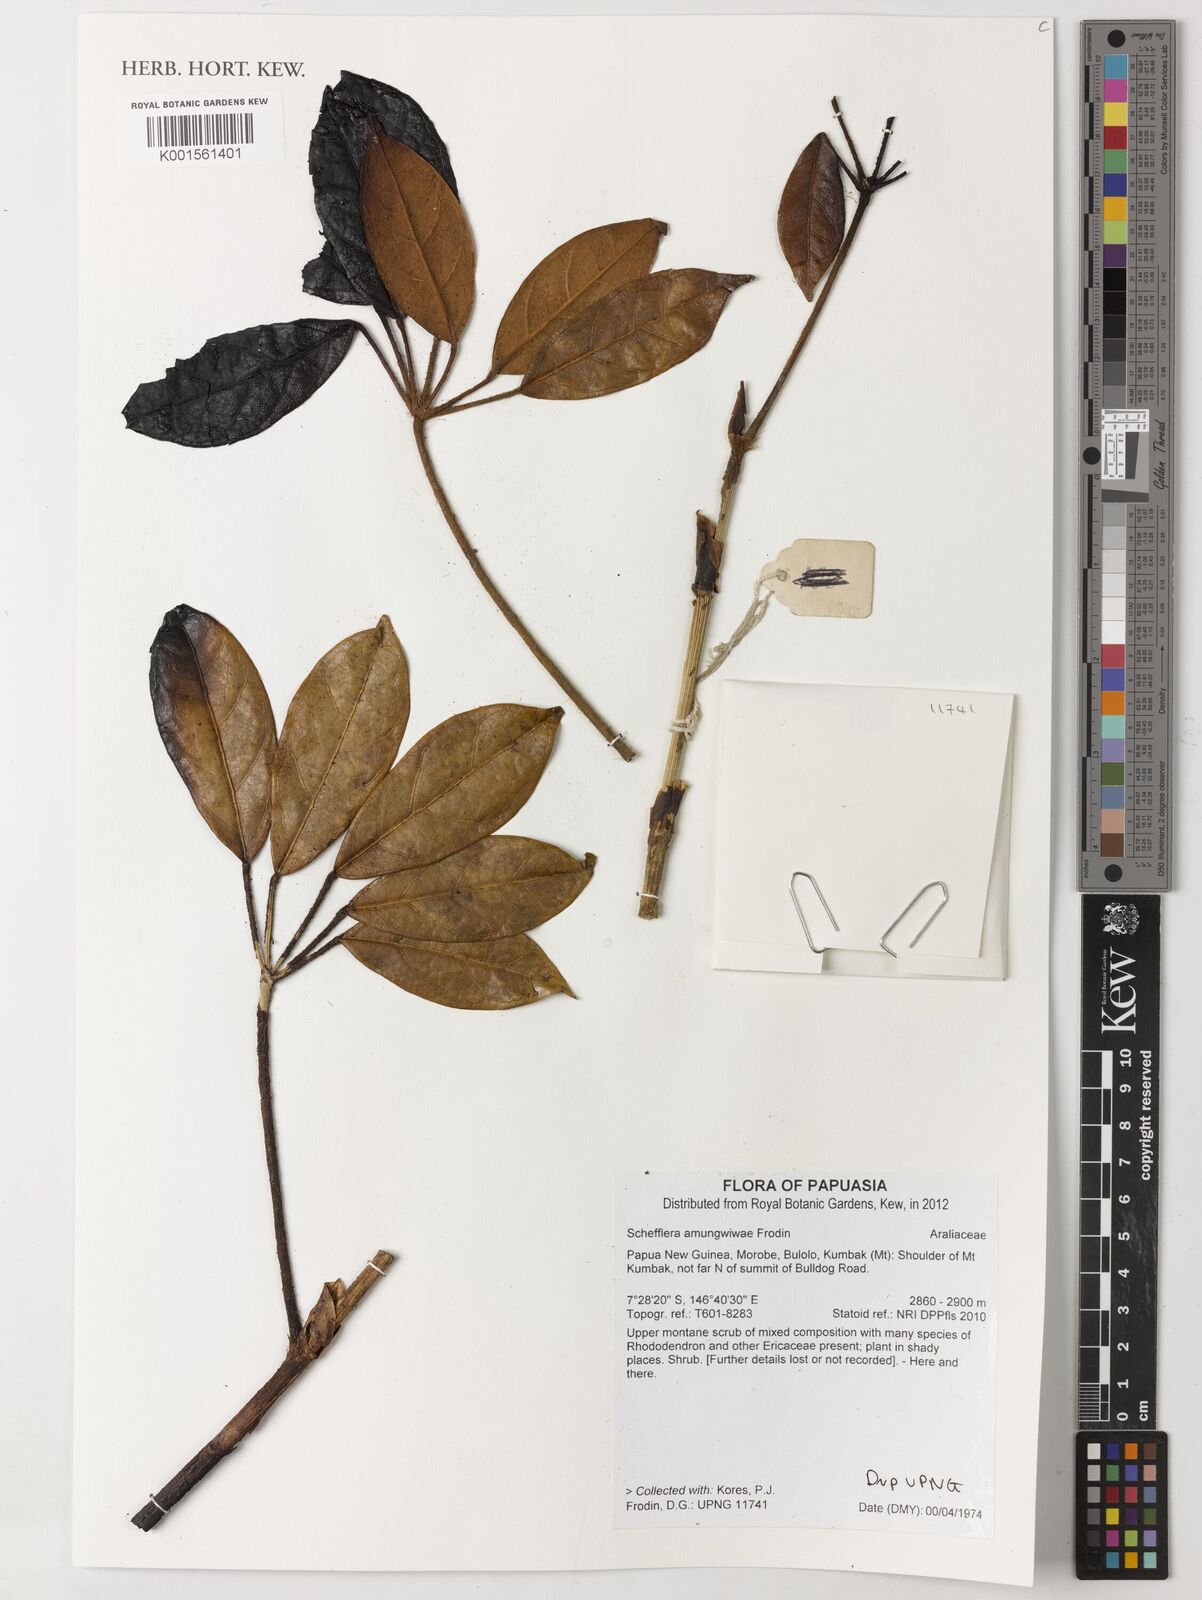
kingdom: Plantae
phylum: Tracheophyta
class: Magnoliopsida
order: Apiales
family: Araliaceae
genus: Heptapleurum
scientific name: Heptapleurum amungwiwae
